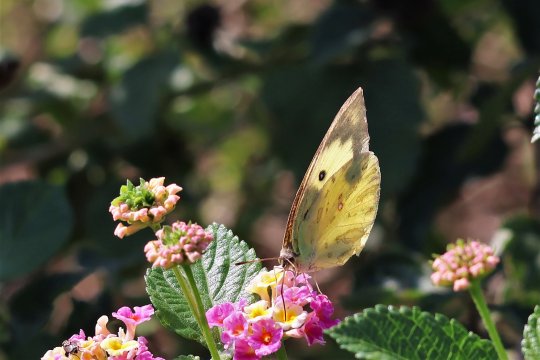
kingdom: Animalia
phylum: Arthropoda
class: Insecta
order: Lepidoptera
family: Pieridae
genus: Zerene
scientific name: Zerene cesonia
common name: Southern Dogface
